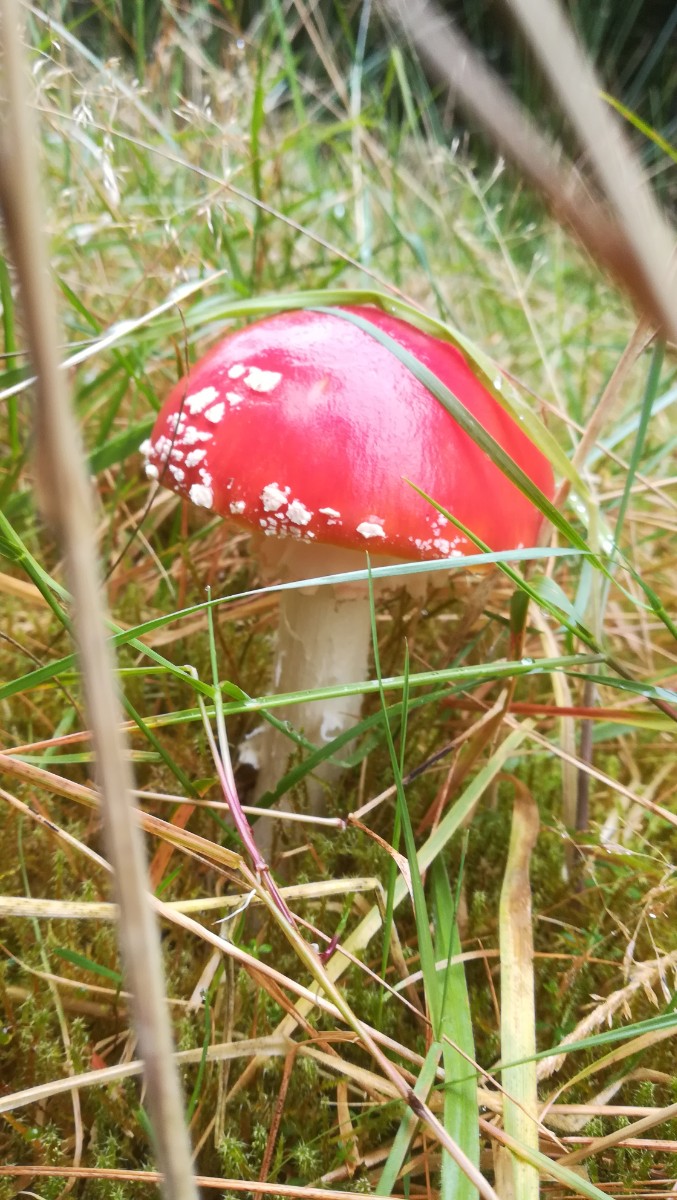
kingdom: Fungi
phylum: Basidiomycota
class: Agaricomycetes
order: Agaricales
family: Amanitaceae
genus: Amanita
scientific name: Amanita muscaria
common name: rød fluesvamp
